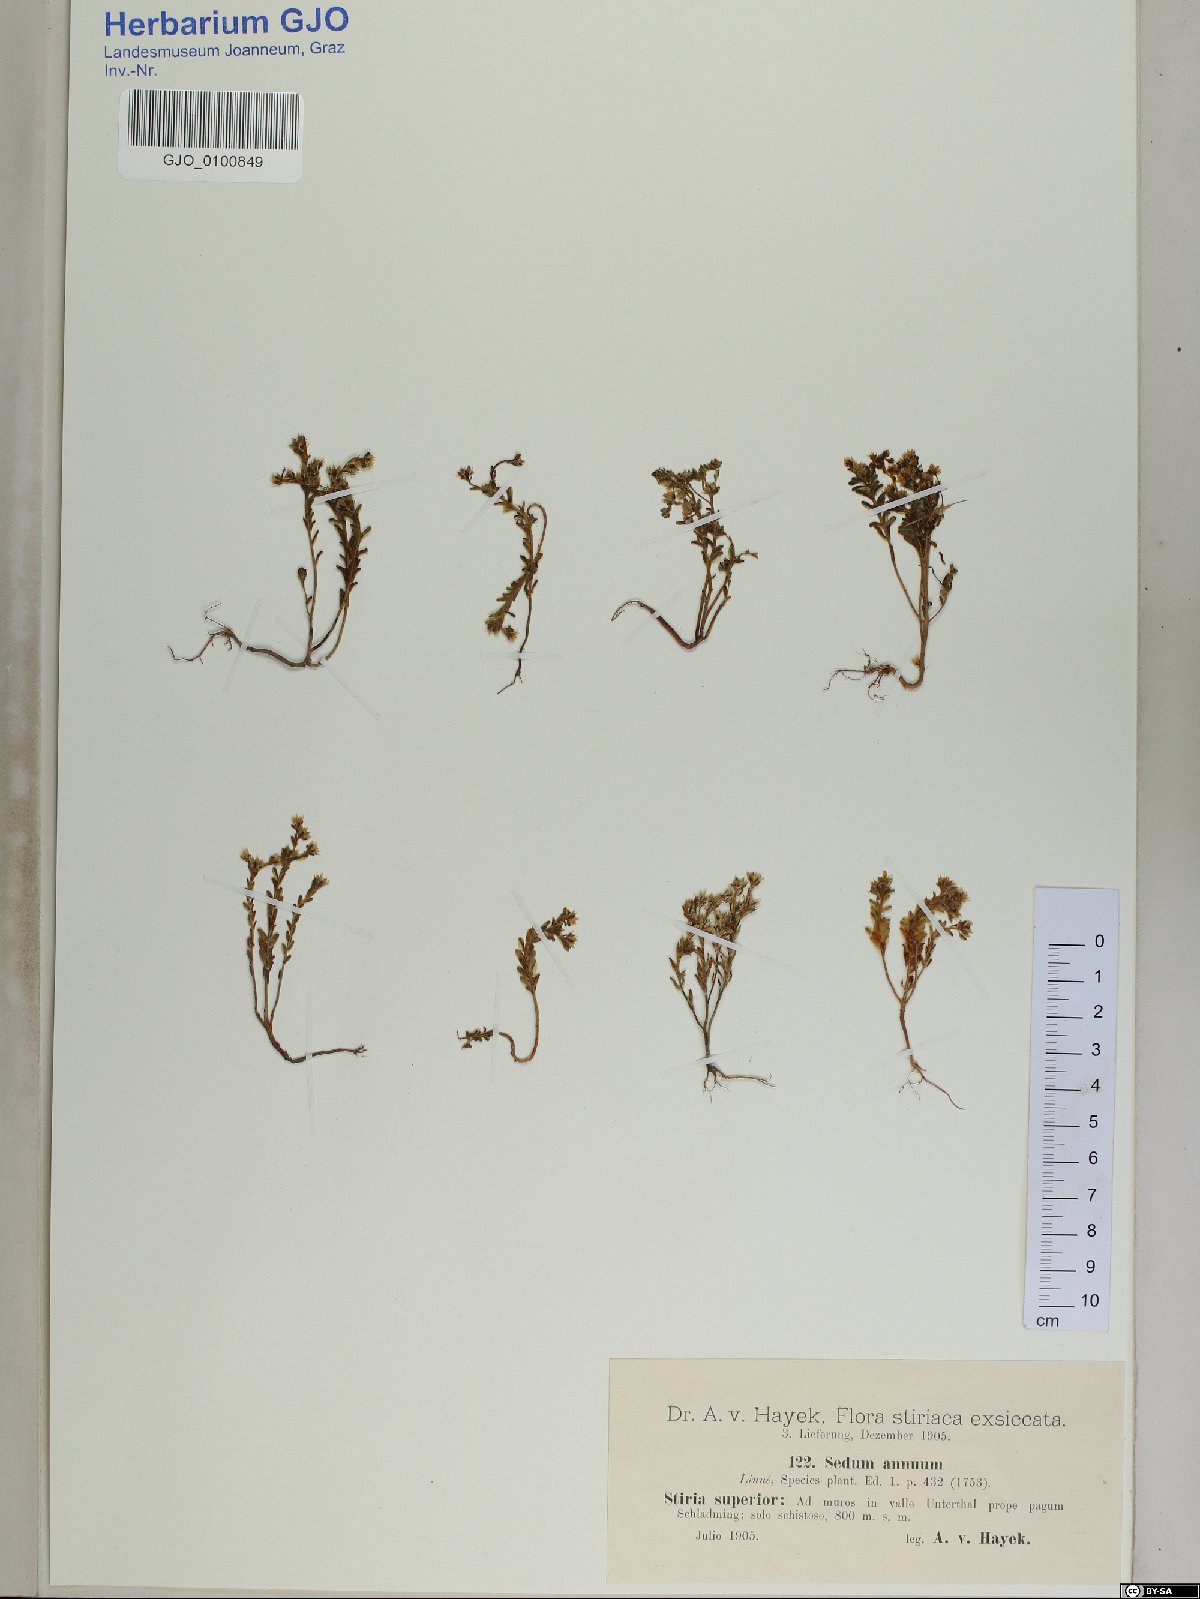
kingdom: Plantae
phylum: Tracheophyta
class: Magnoliopsida
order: Saxifragales
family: Crassulaceae
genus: Sedum
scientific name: Sedum annuum
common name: Annual stonecrop
